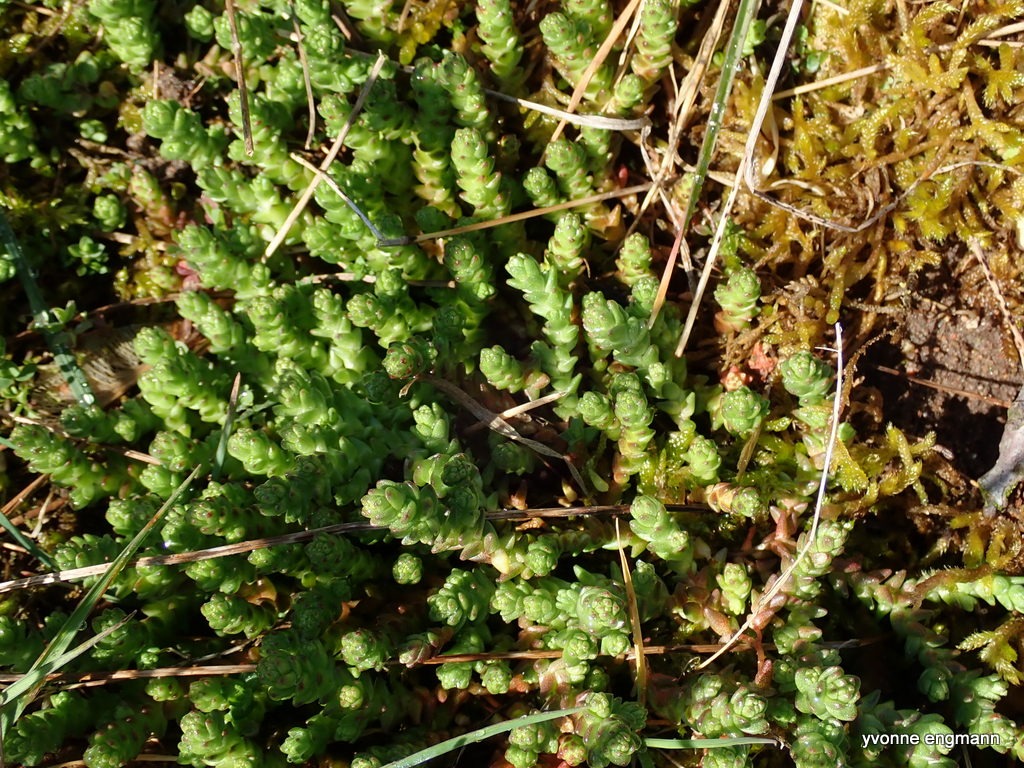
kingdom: Plantae
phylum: Tracheophyta
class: Magnoliopsida
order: Saxifragales
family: Crassulaceae
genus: Sedum
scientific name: Sedum acre
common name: Bidende stenurt
